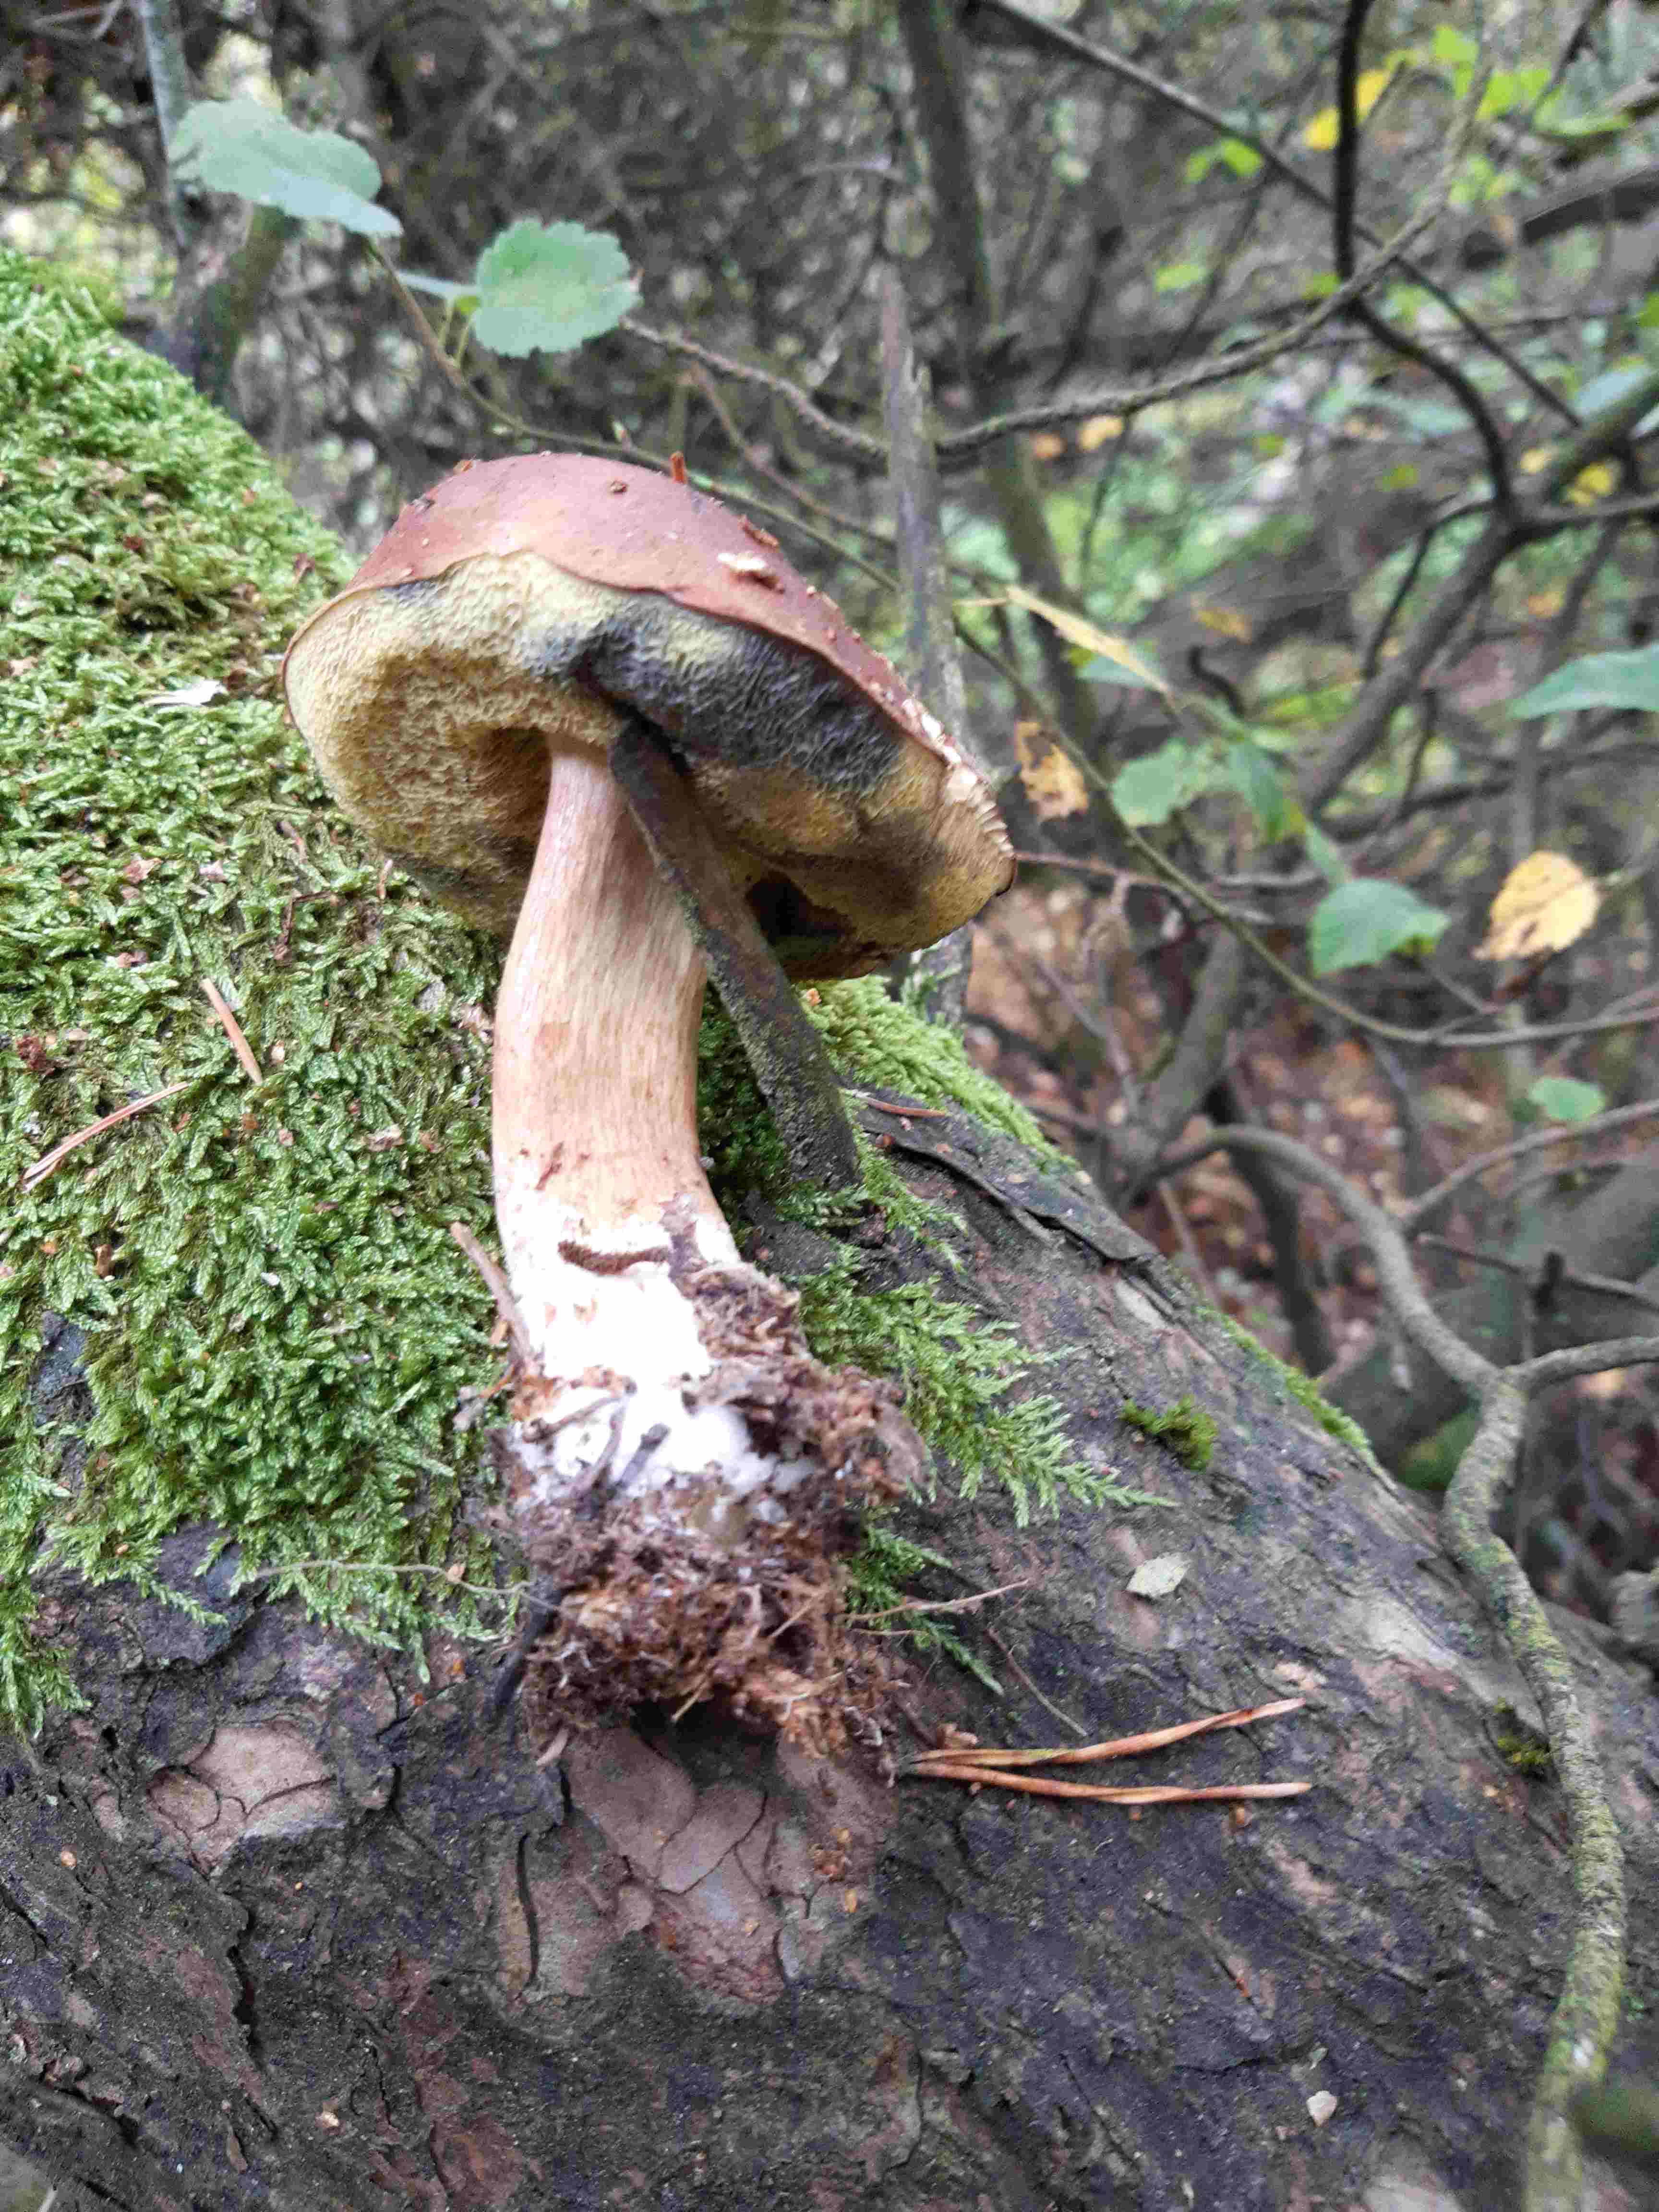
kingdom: Fungi
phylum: Basidiomycota
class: Agaricomycetes
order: Boletales
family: Boletaceae
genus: Imleria
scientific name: Imleria badia
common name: brunstokket rørhat
